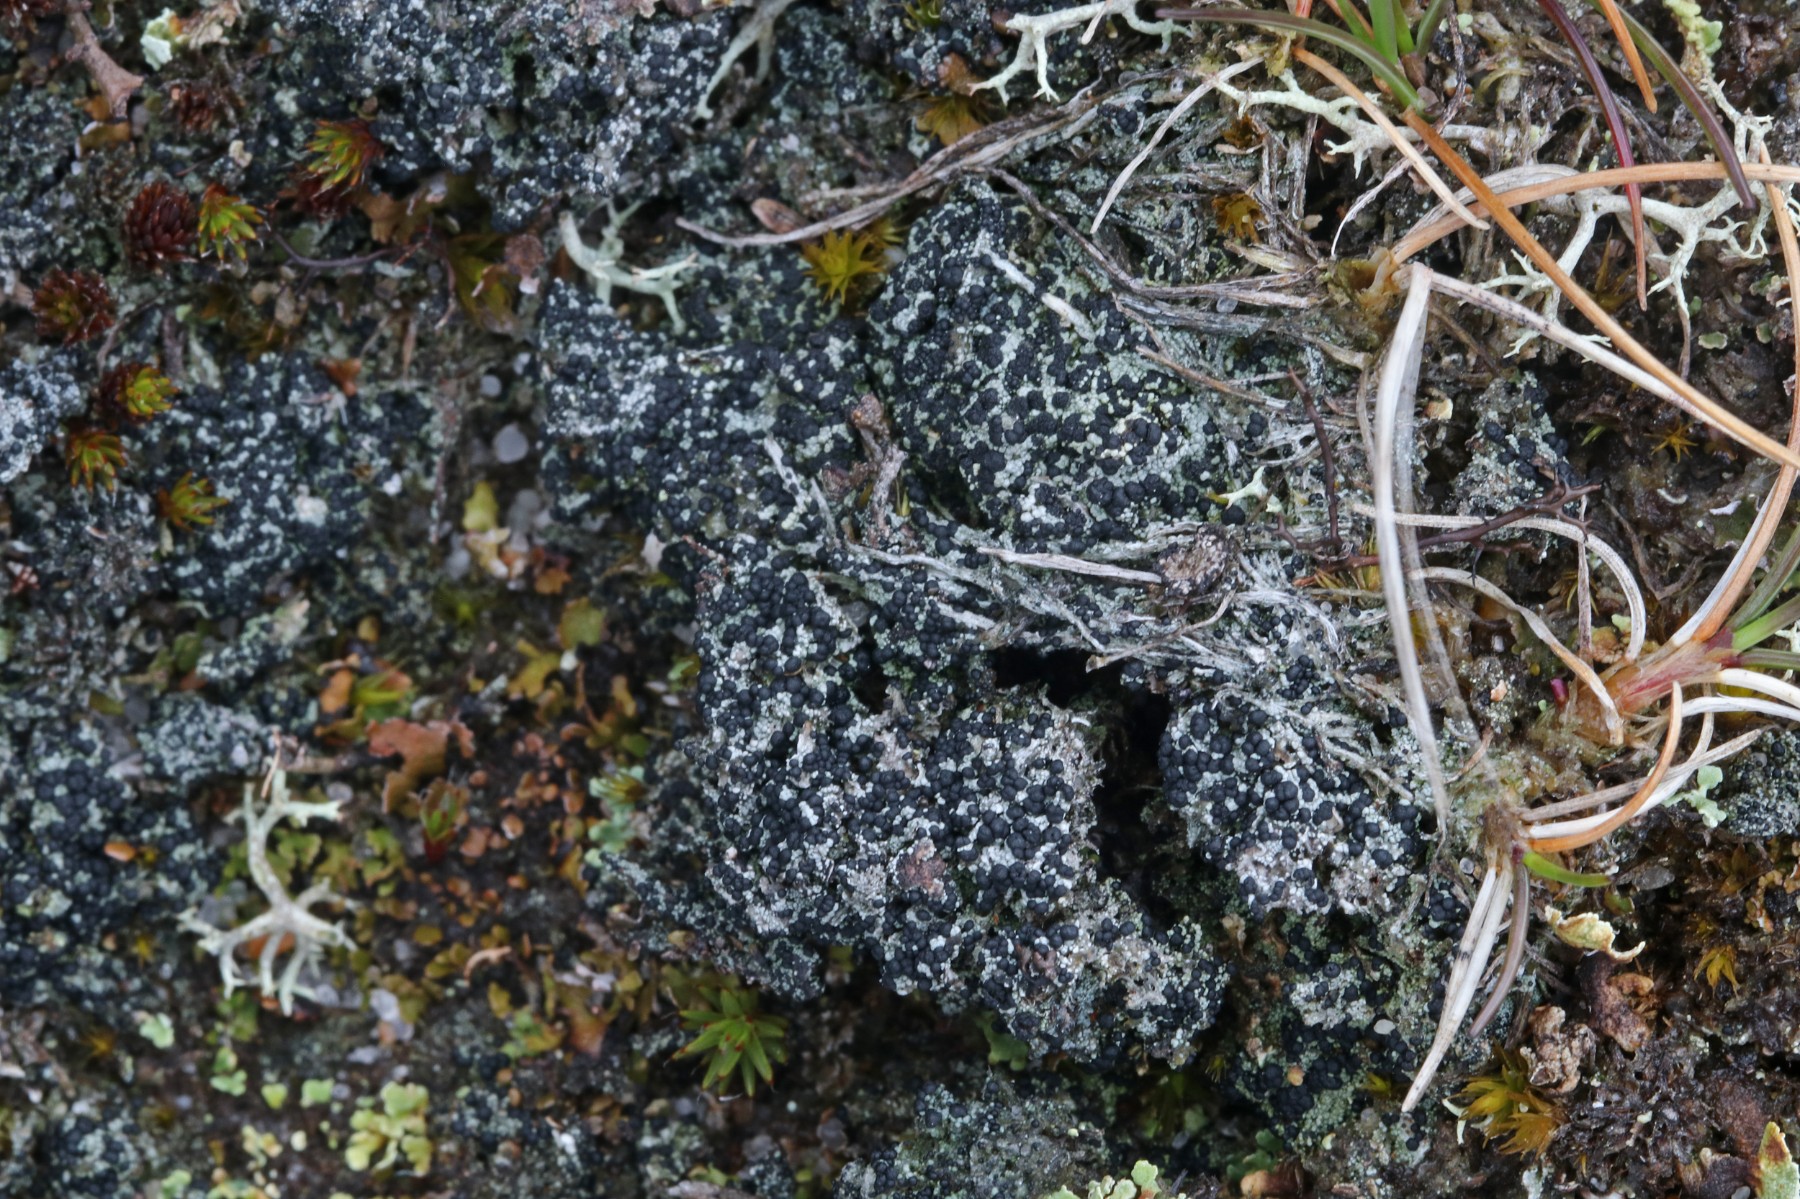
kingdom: Fungi
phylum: Ascomycota
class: Lecanoromycetes
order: Lecanorales
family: Byssolomataceae
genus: Micarea
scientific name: Micarea lignaria
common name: tørve-knaplav
